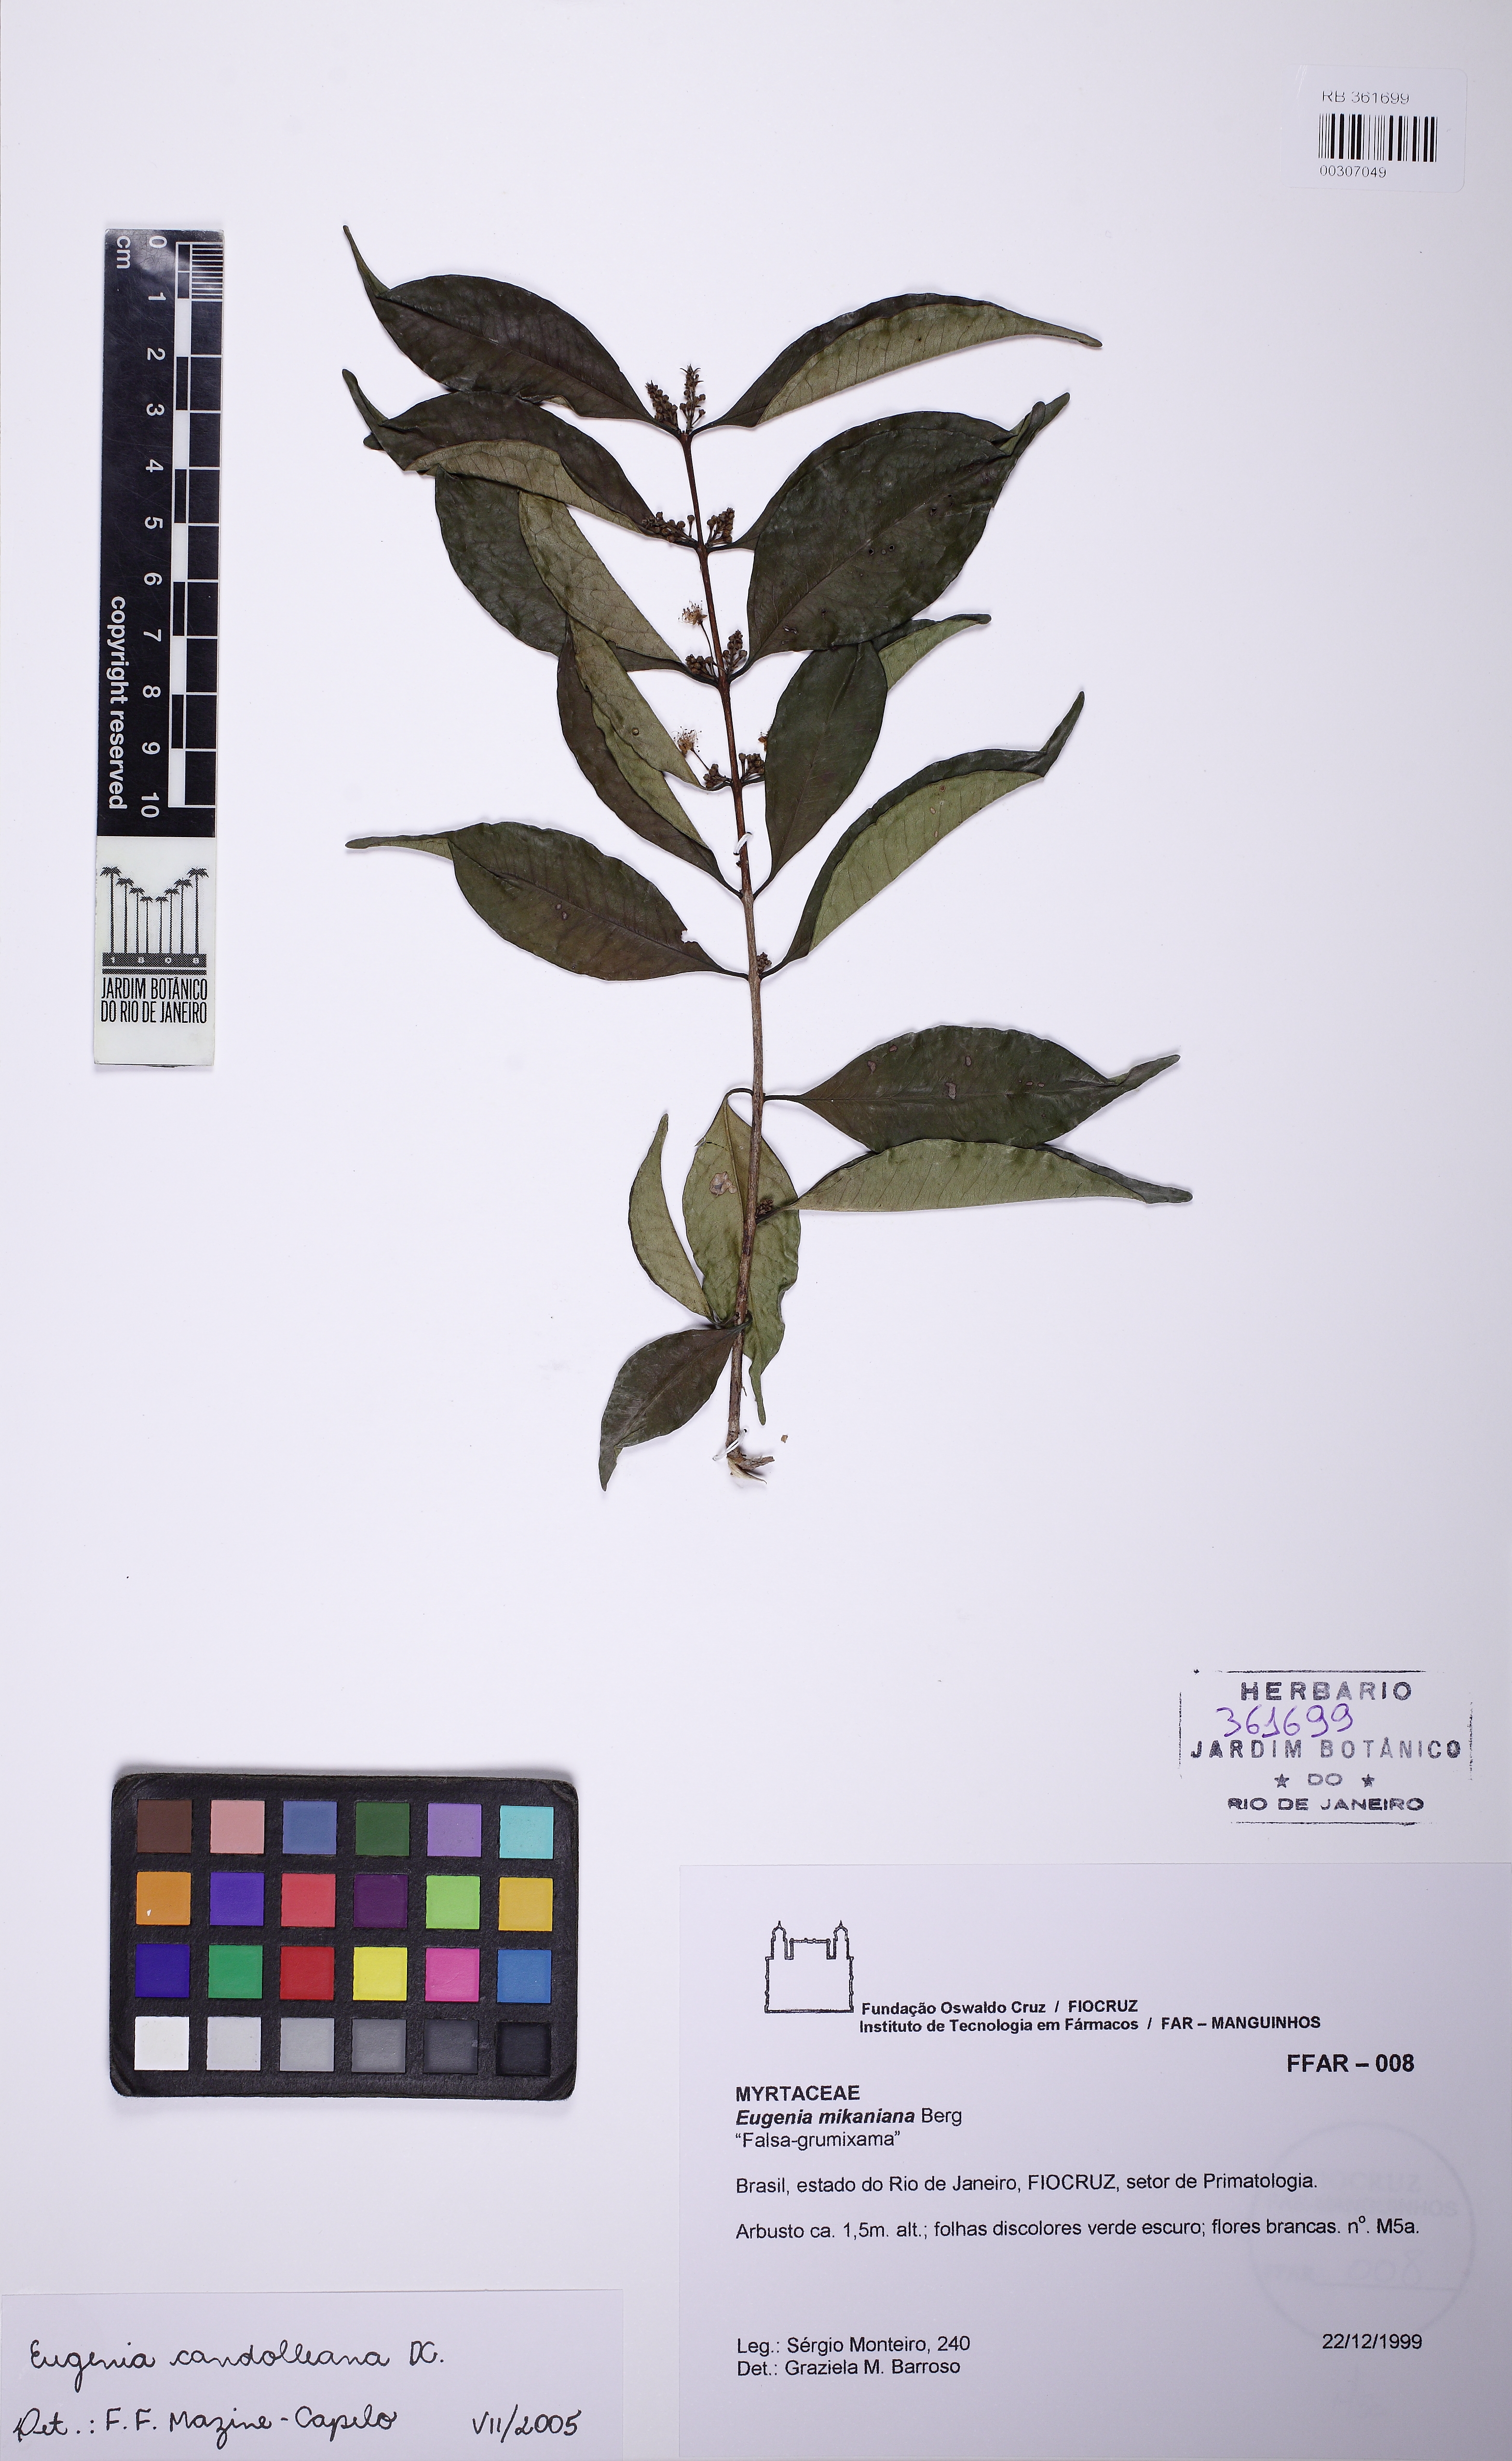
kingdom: Plantae
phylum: Tracheophyta
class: Magnoliopsida
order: Myrtales
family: Myrtaceae
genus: Eugenia
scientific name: Eugenia candolleana
